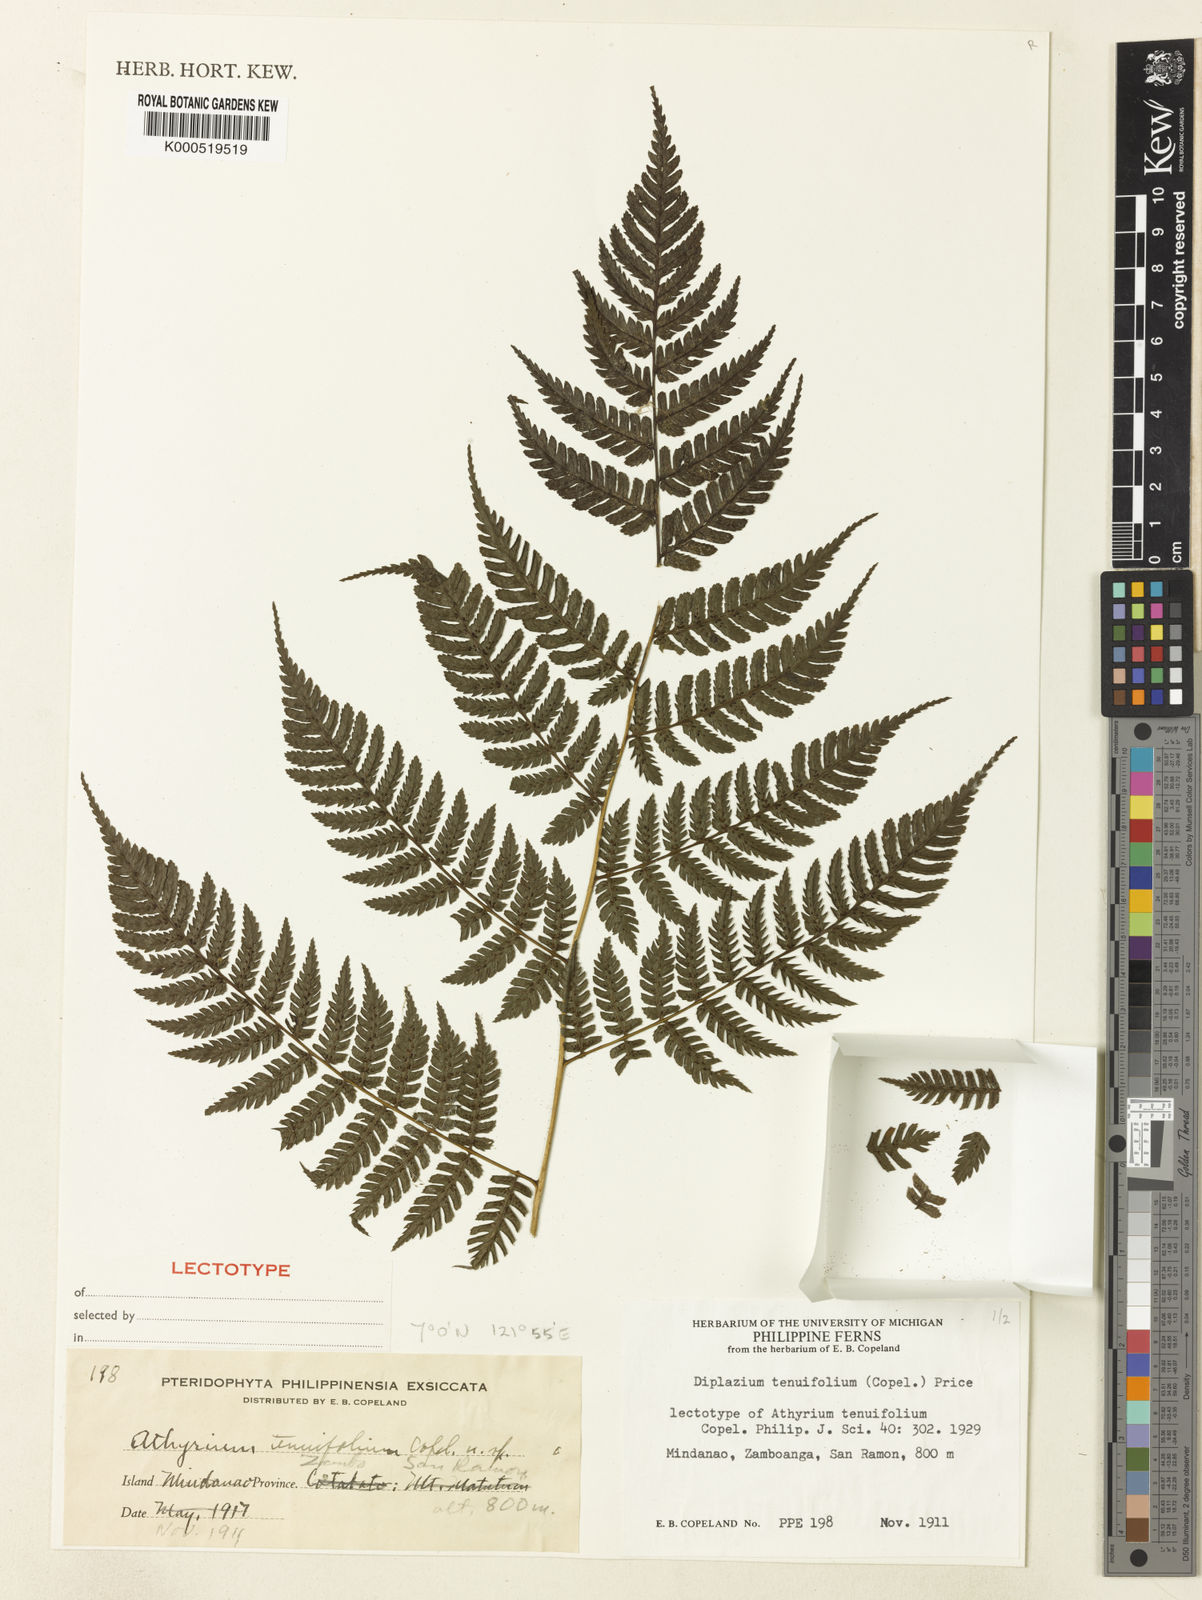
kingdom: Plantae
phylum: Tracheophyta
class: Polypodiopsida
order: Polypodiales
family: Athyriaceae
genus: Diplazium
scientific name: Diplazium tenuifolium
